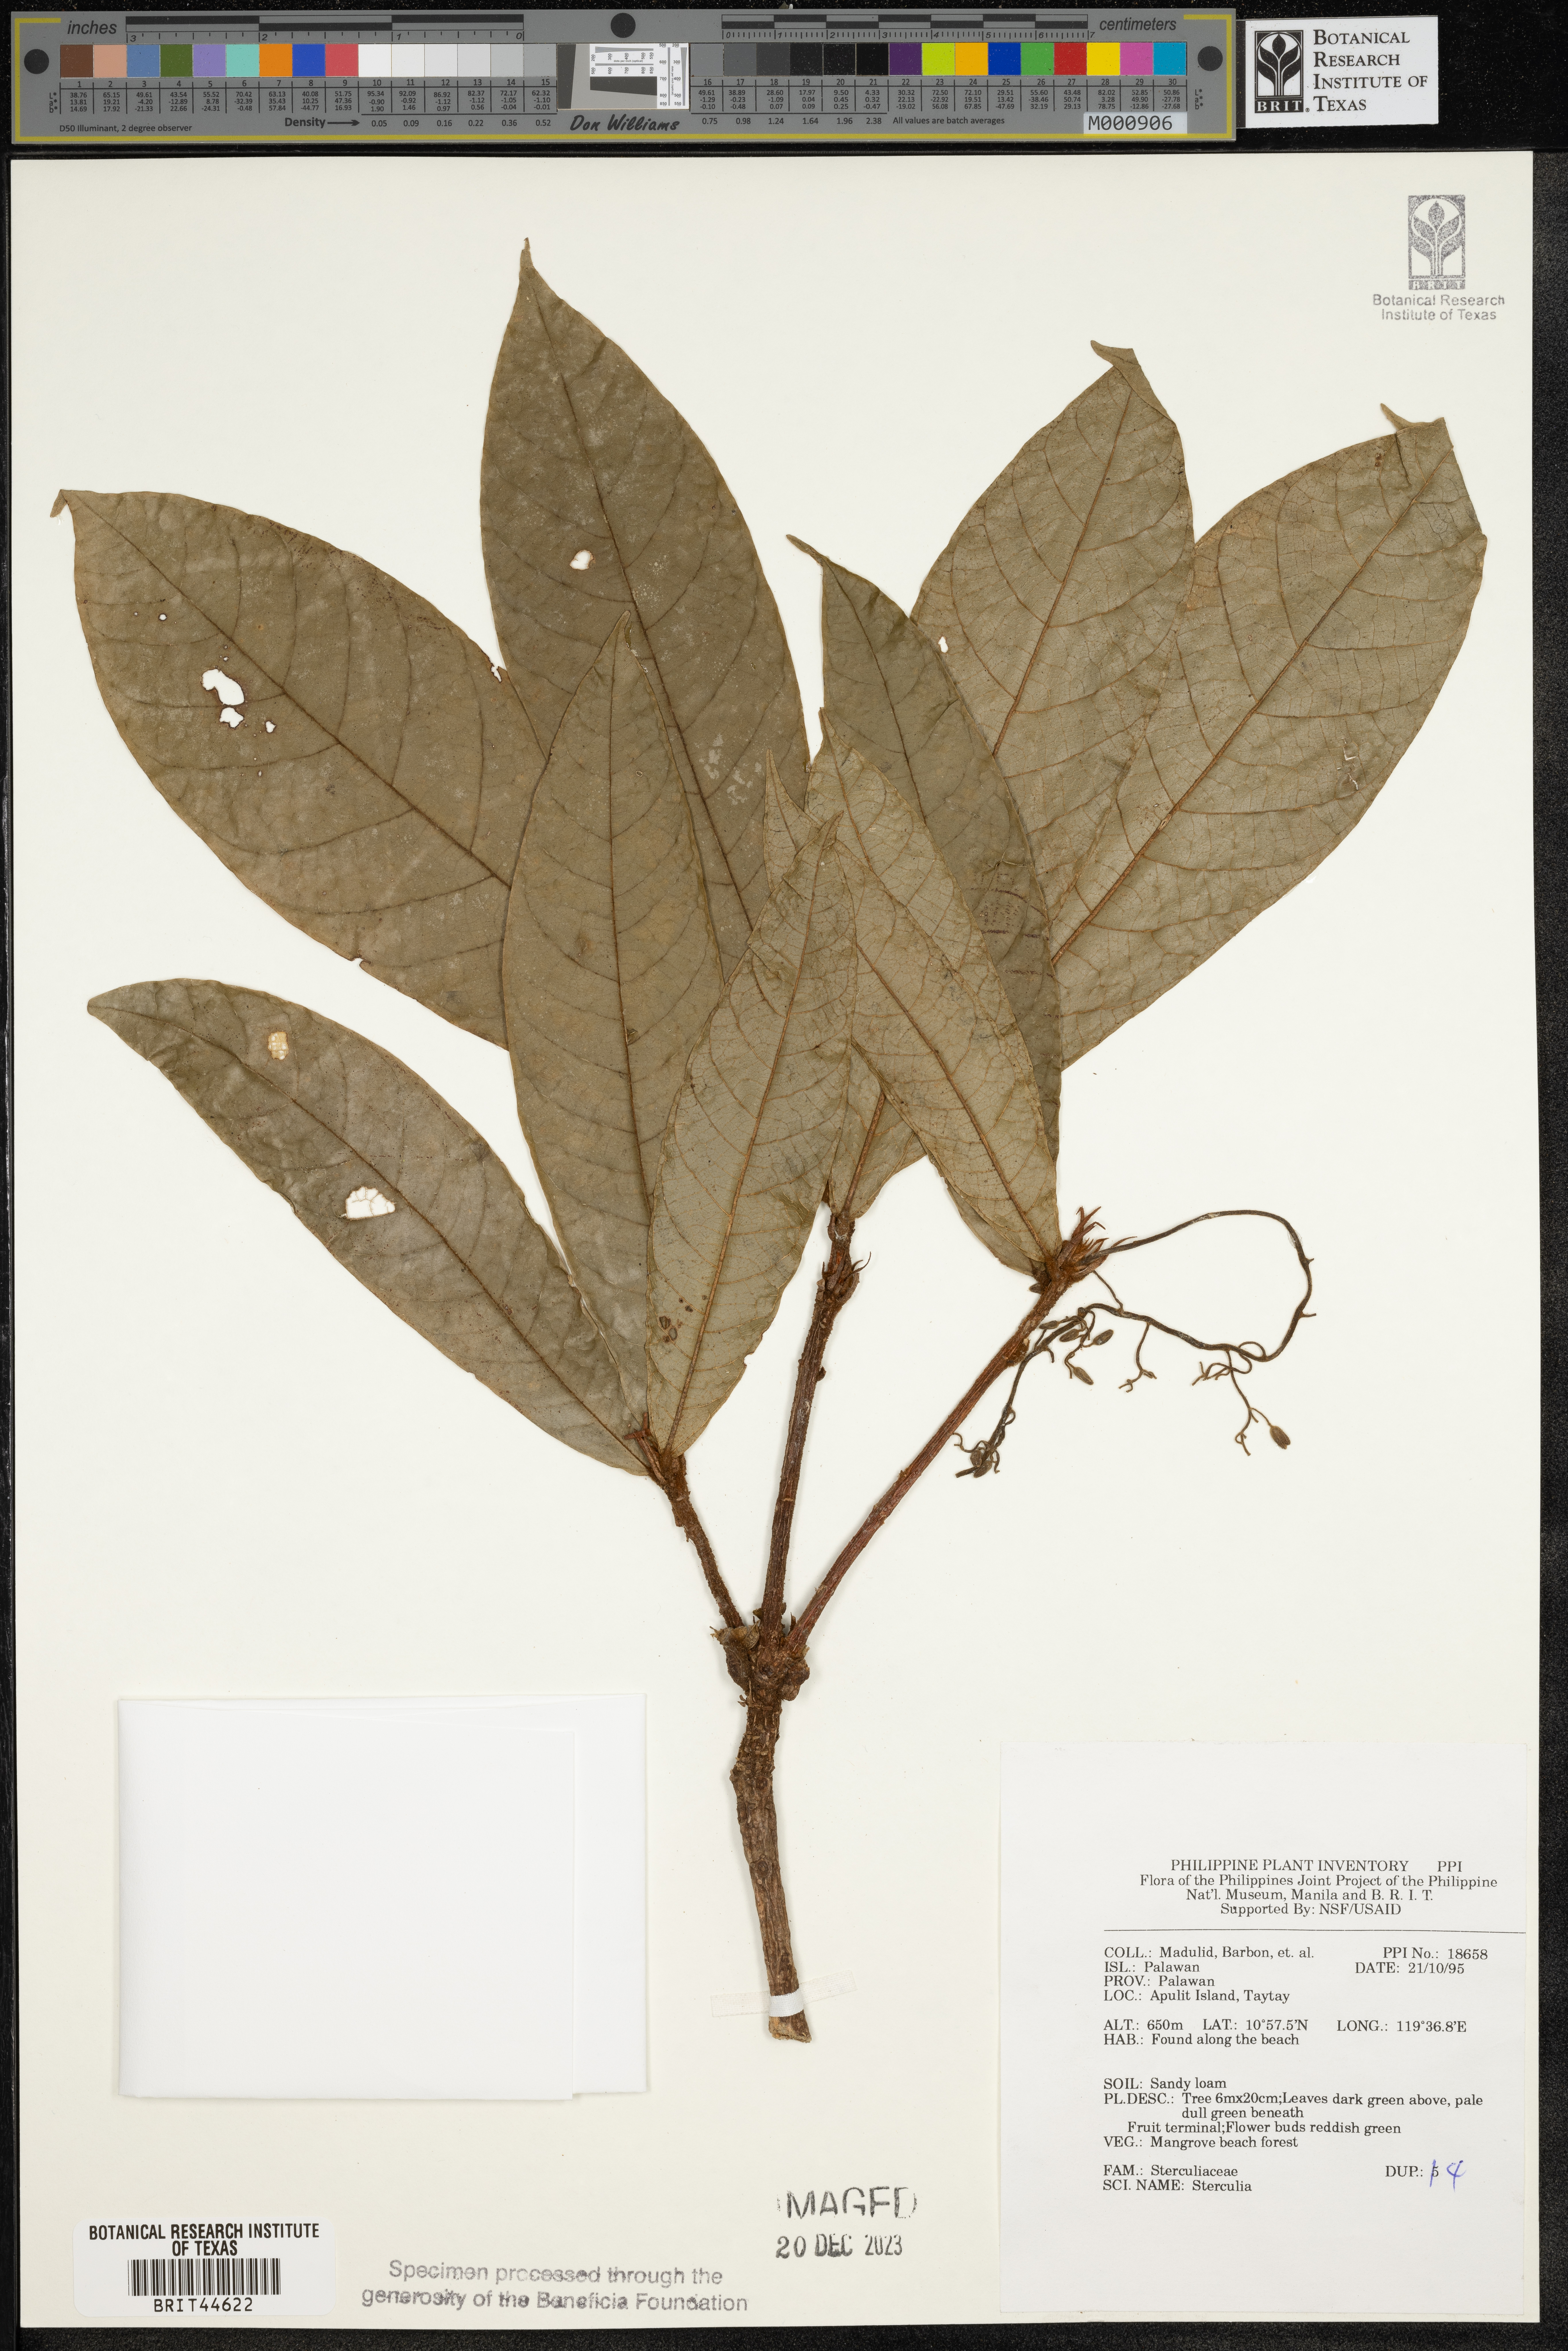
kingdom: Plantae
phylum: Tracheophyta
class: Magnoliopsida
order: Malvales
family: Malvaceae
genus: Sterculia
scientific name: Sterculia
